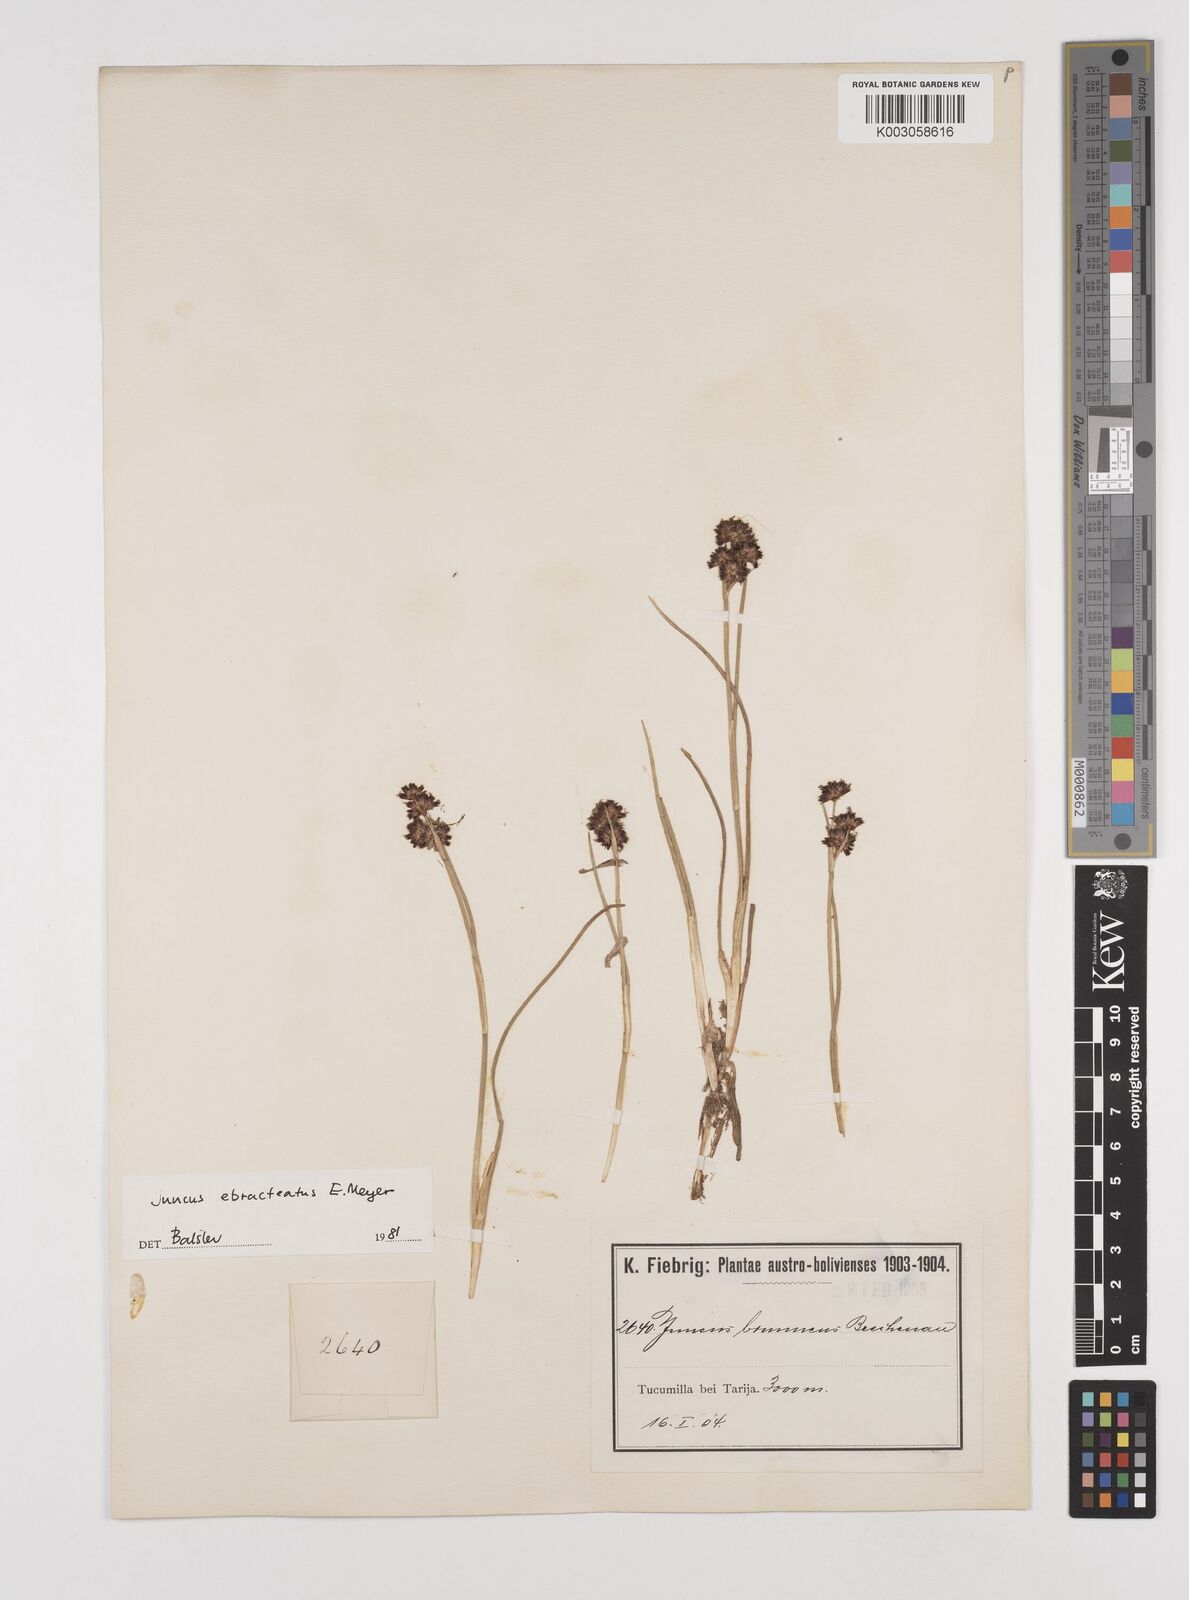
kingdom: Plantae
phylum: Tracheophyta
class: Liliopsida
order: Poales
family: Juncaceae
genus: Juncus
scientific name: Juncus ebracteatus
